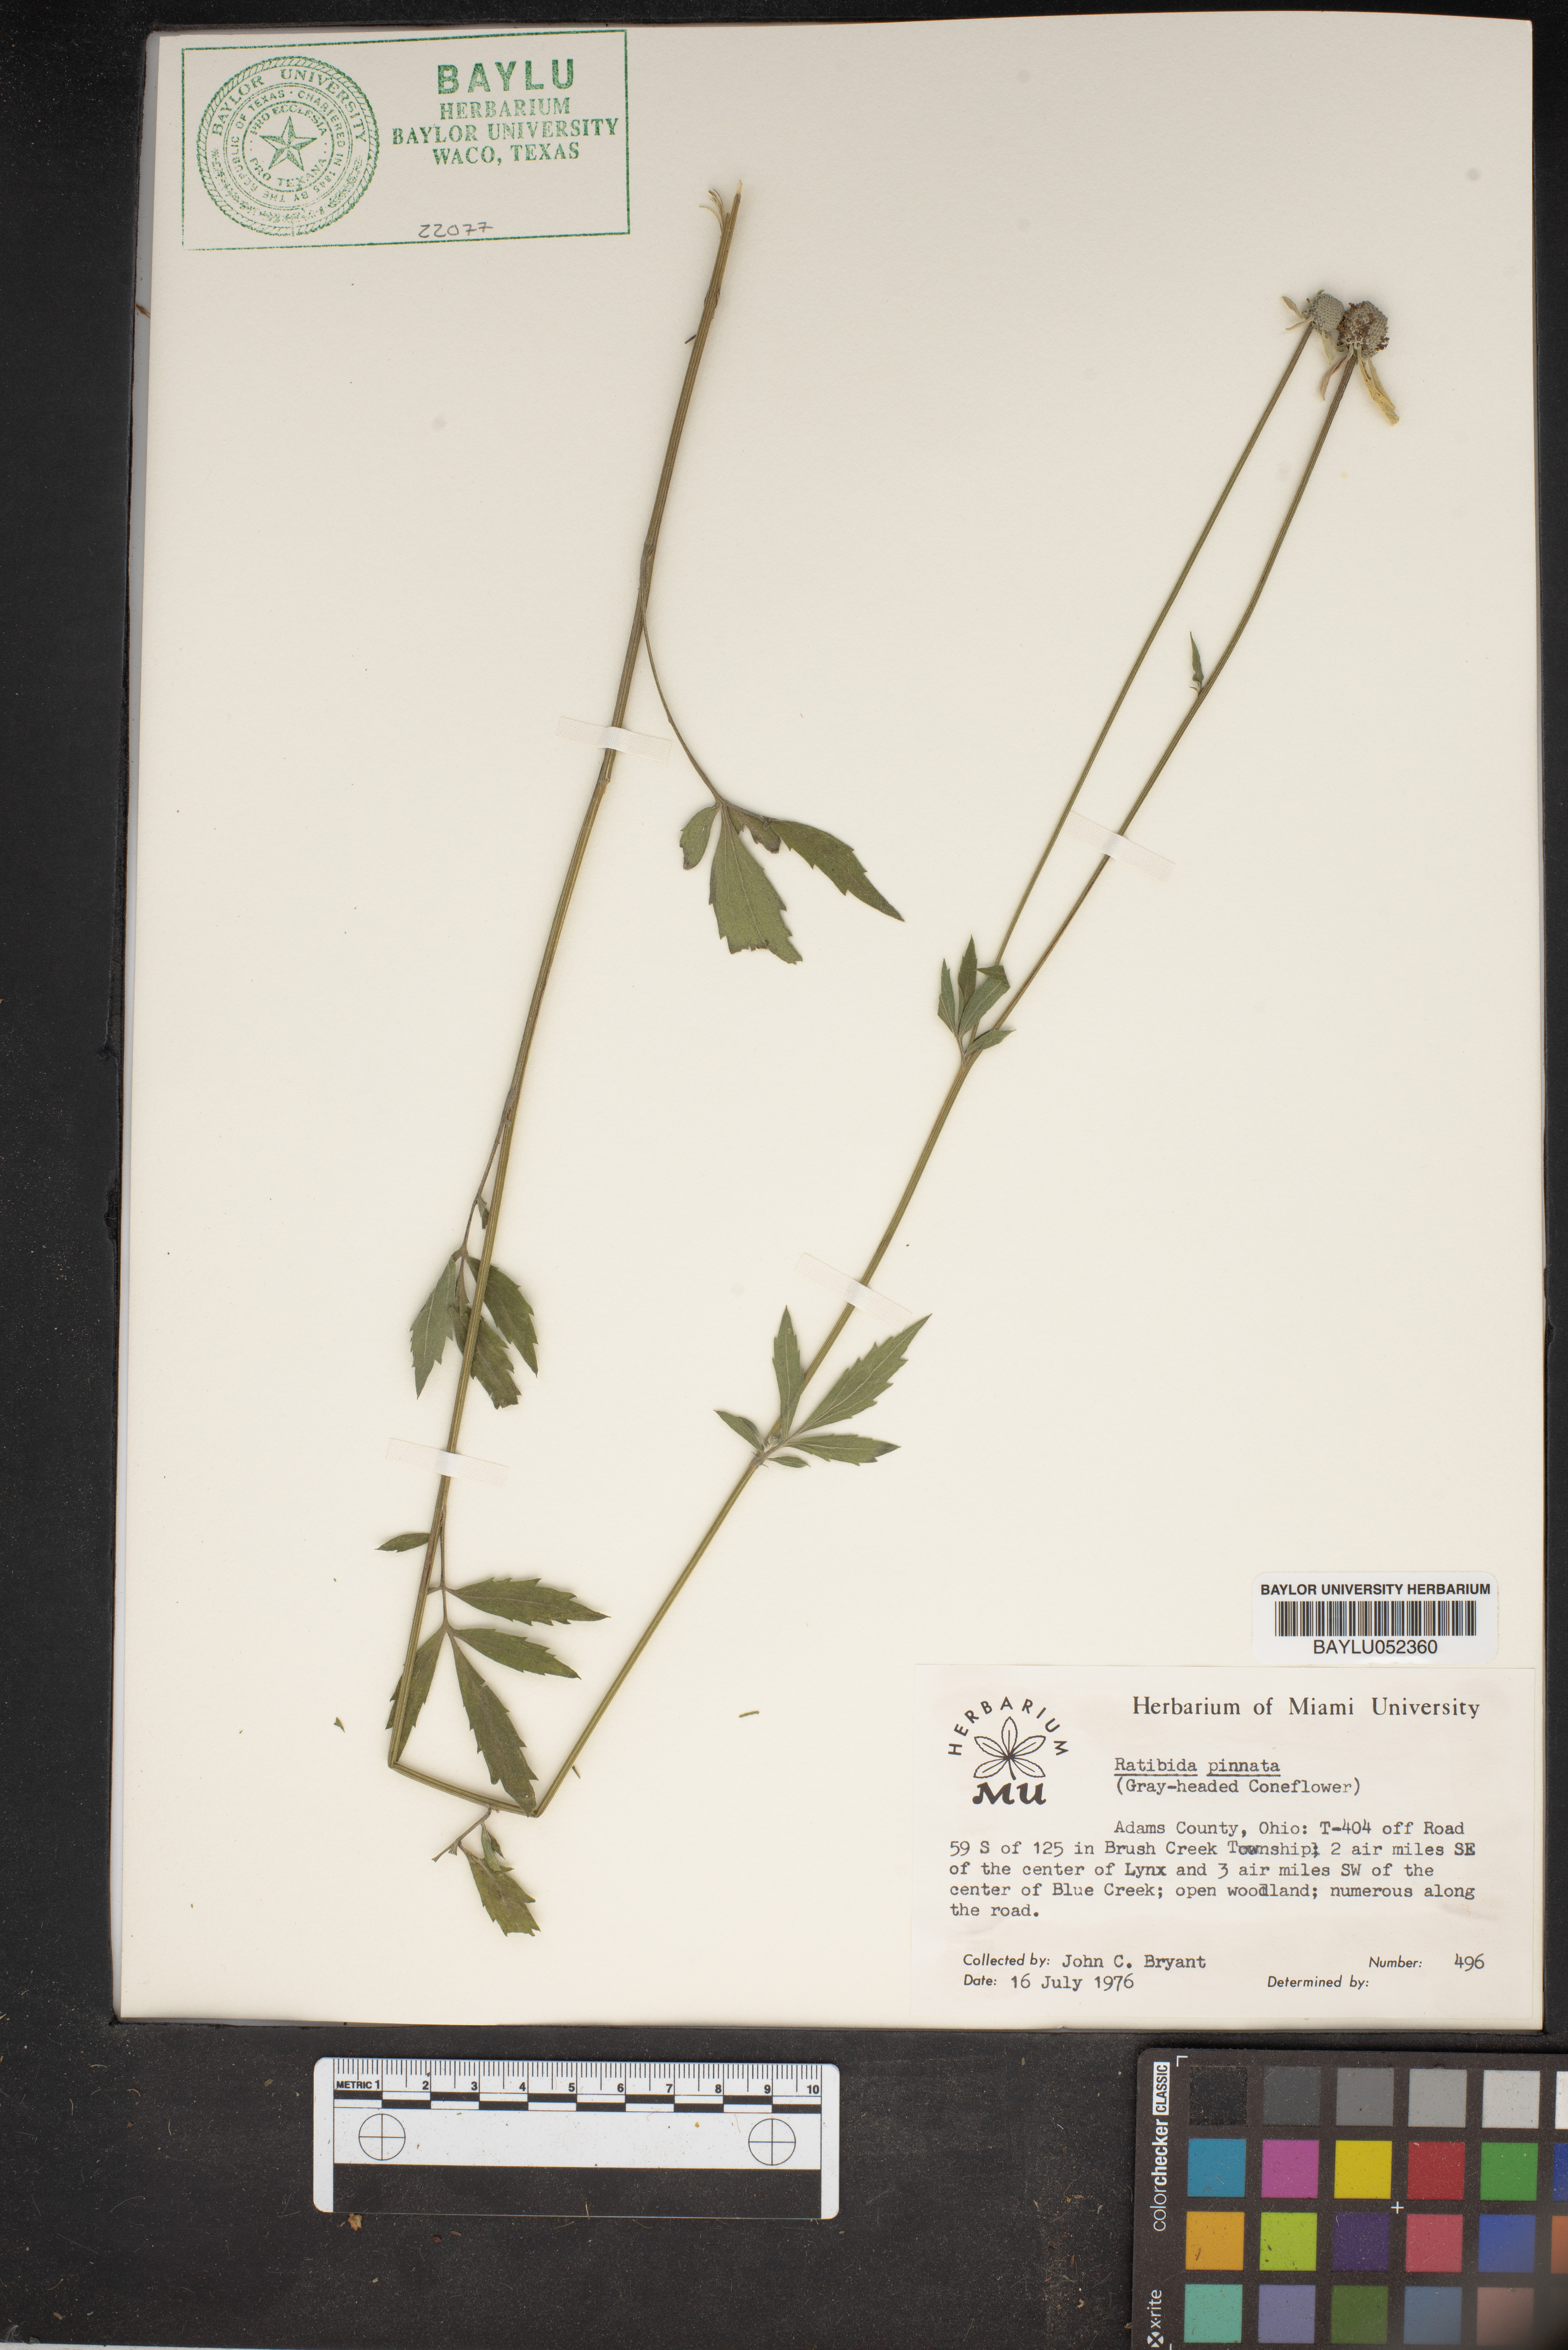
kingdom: Plantae
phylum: Tracheophyta
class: Magnoliopsida
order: Asterales
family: Asteraceae
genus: Ratibida
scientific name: Ratibida pinnata
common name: Drooping prairie-coneflower
